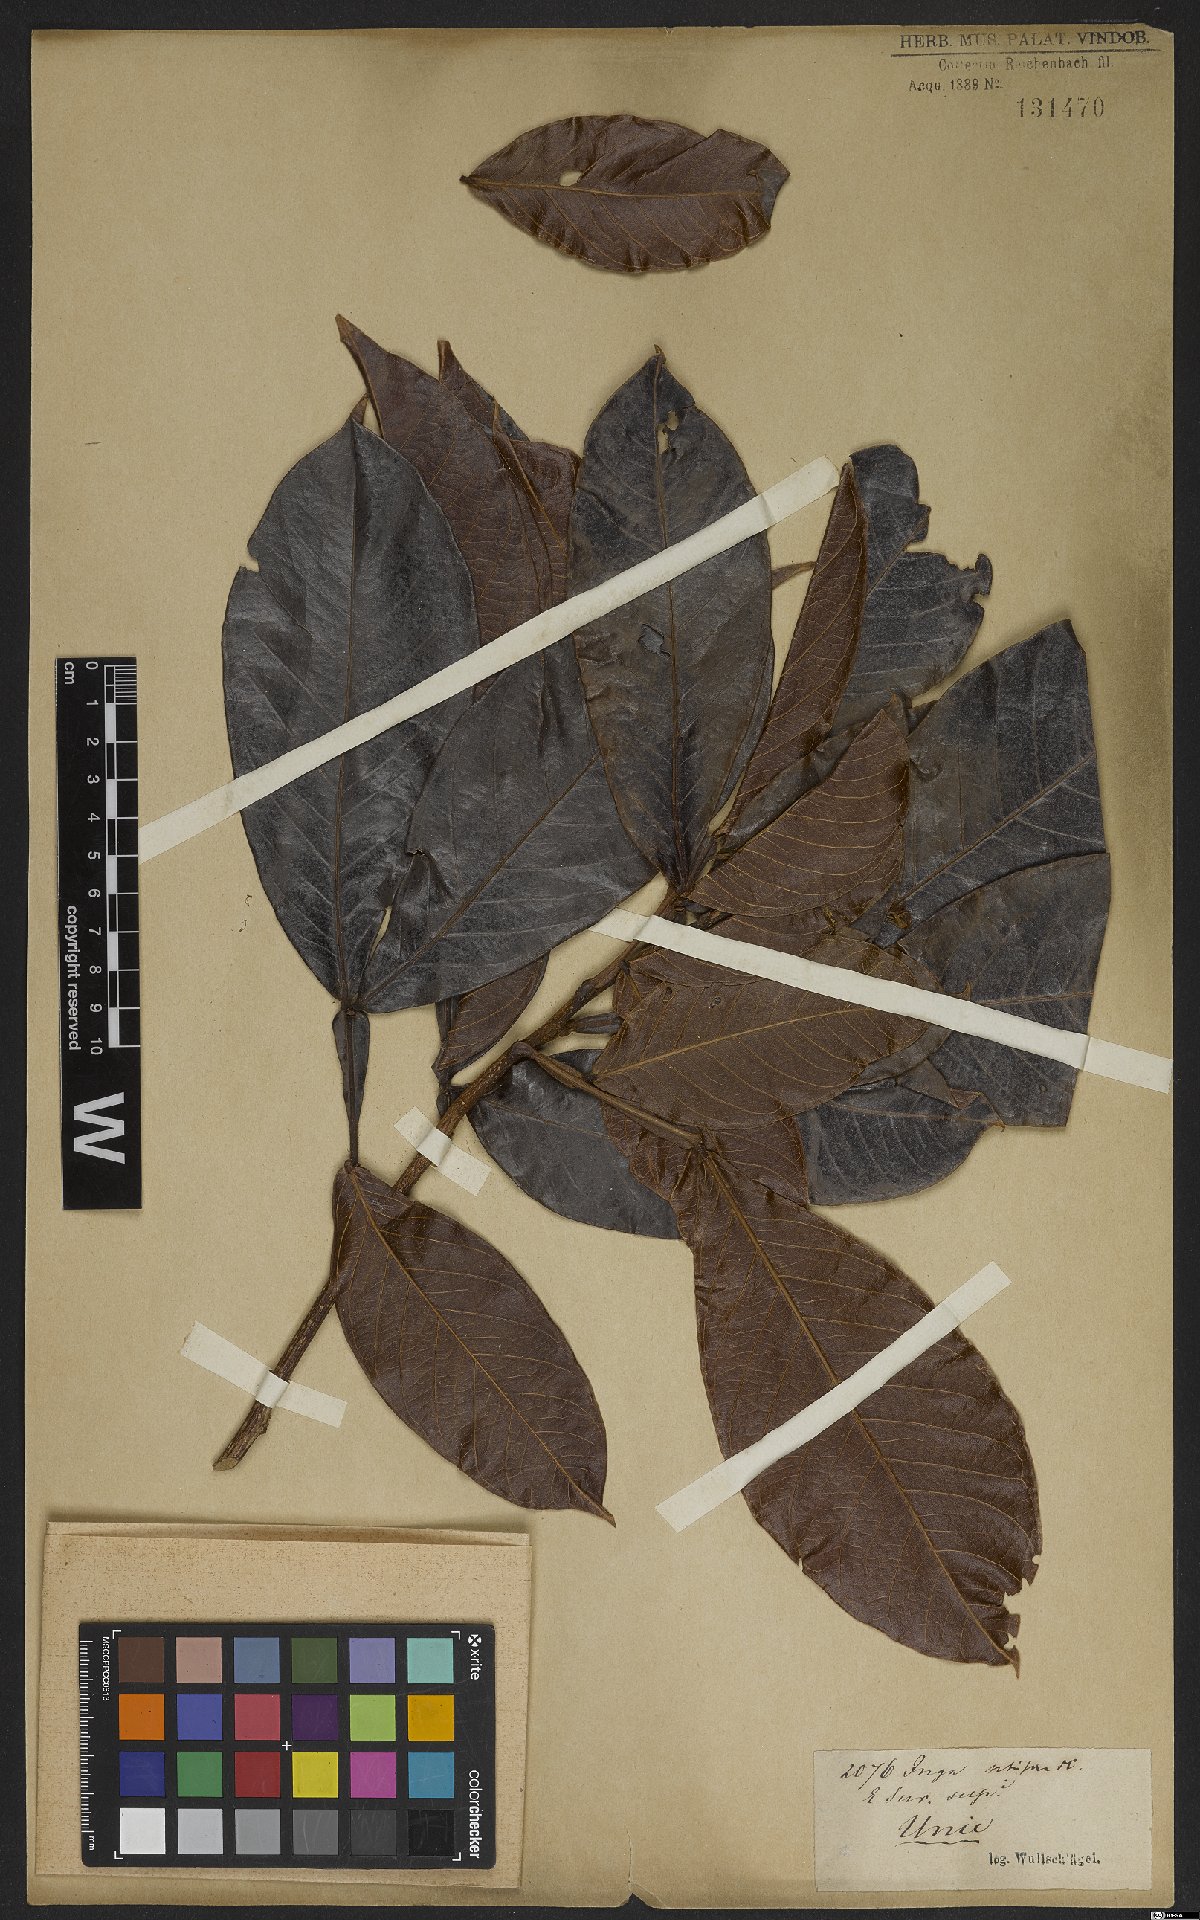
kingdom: Plantae
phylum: Tracheophyta
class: Magnoliopsida
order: Fabales
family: Fabaceae
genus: Inga
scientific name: Inga pilosula
